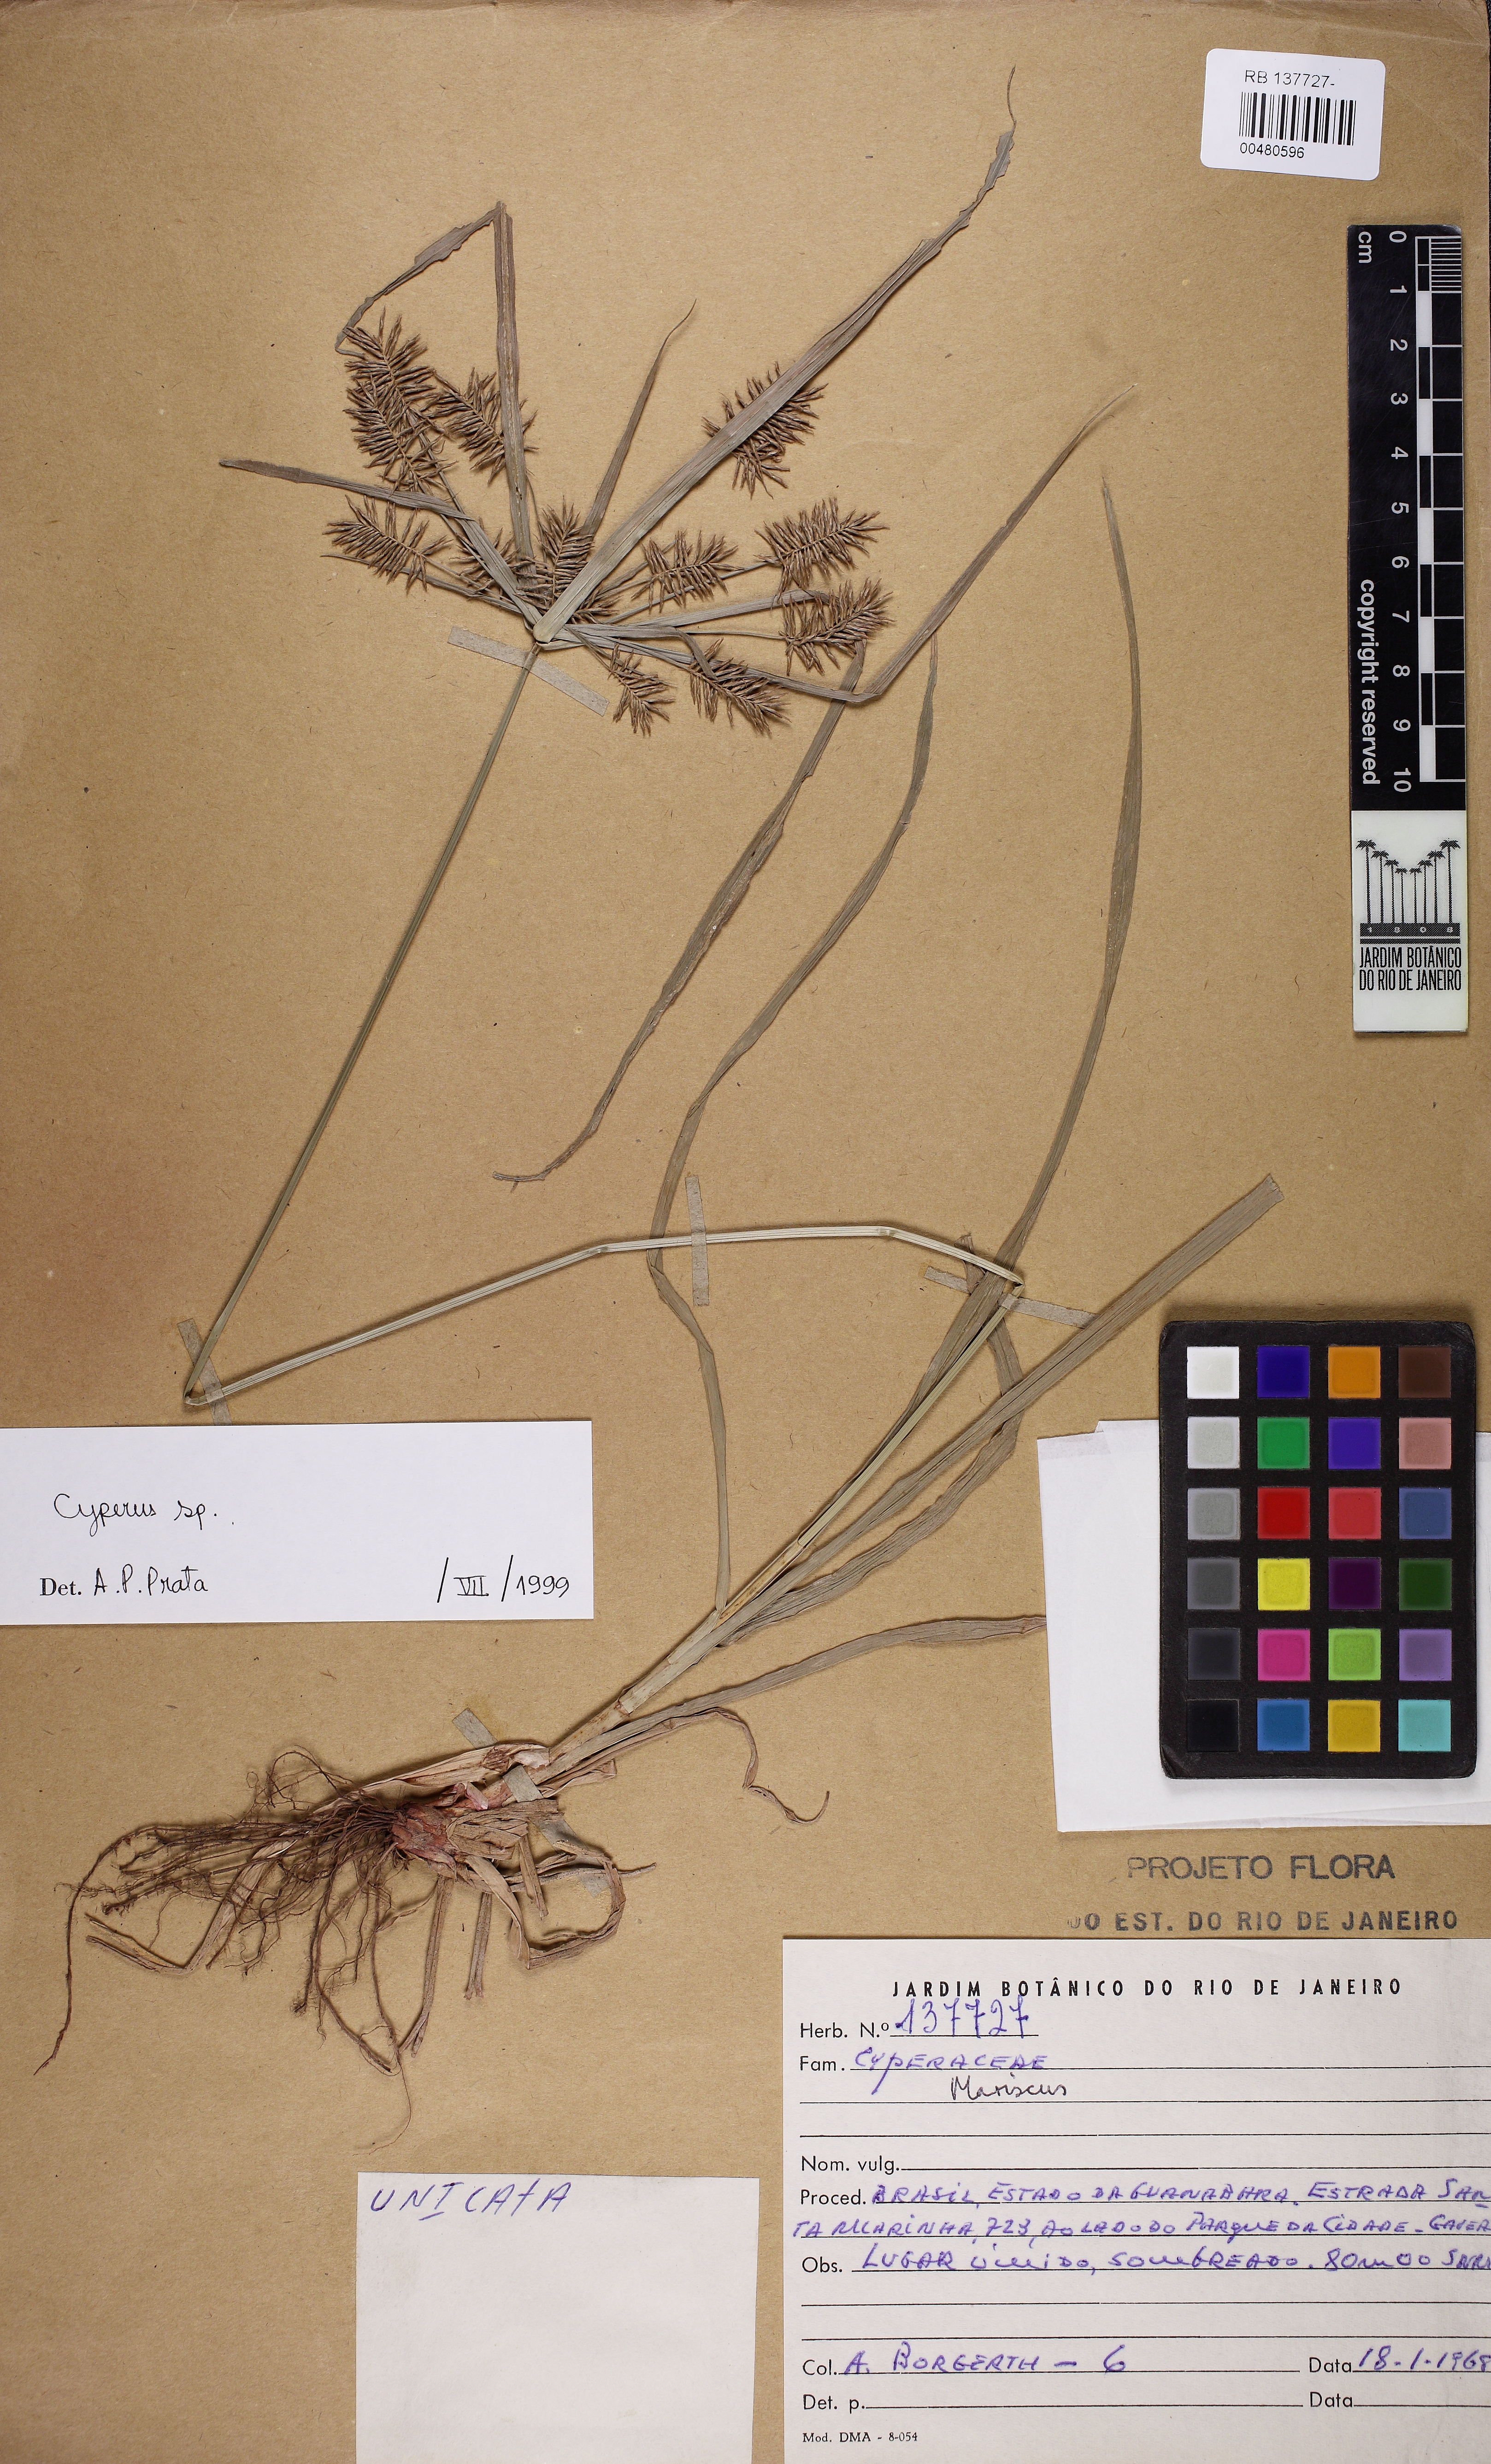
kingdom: Plantae
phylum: Tracheophyta
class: Liliopsida
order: Poales
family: Cyperaceae
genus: Cyperus
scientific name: Cyperus hermaphroditus
